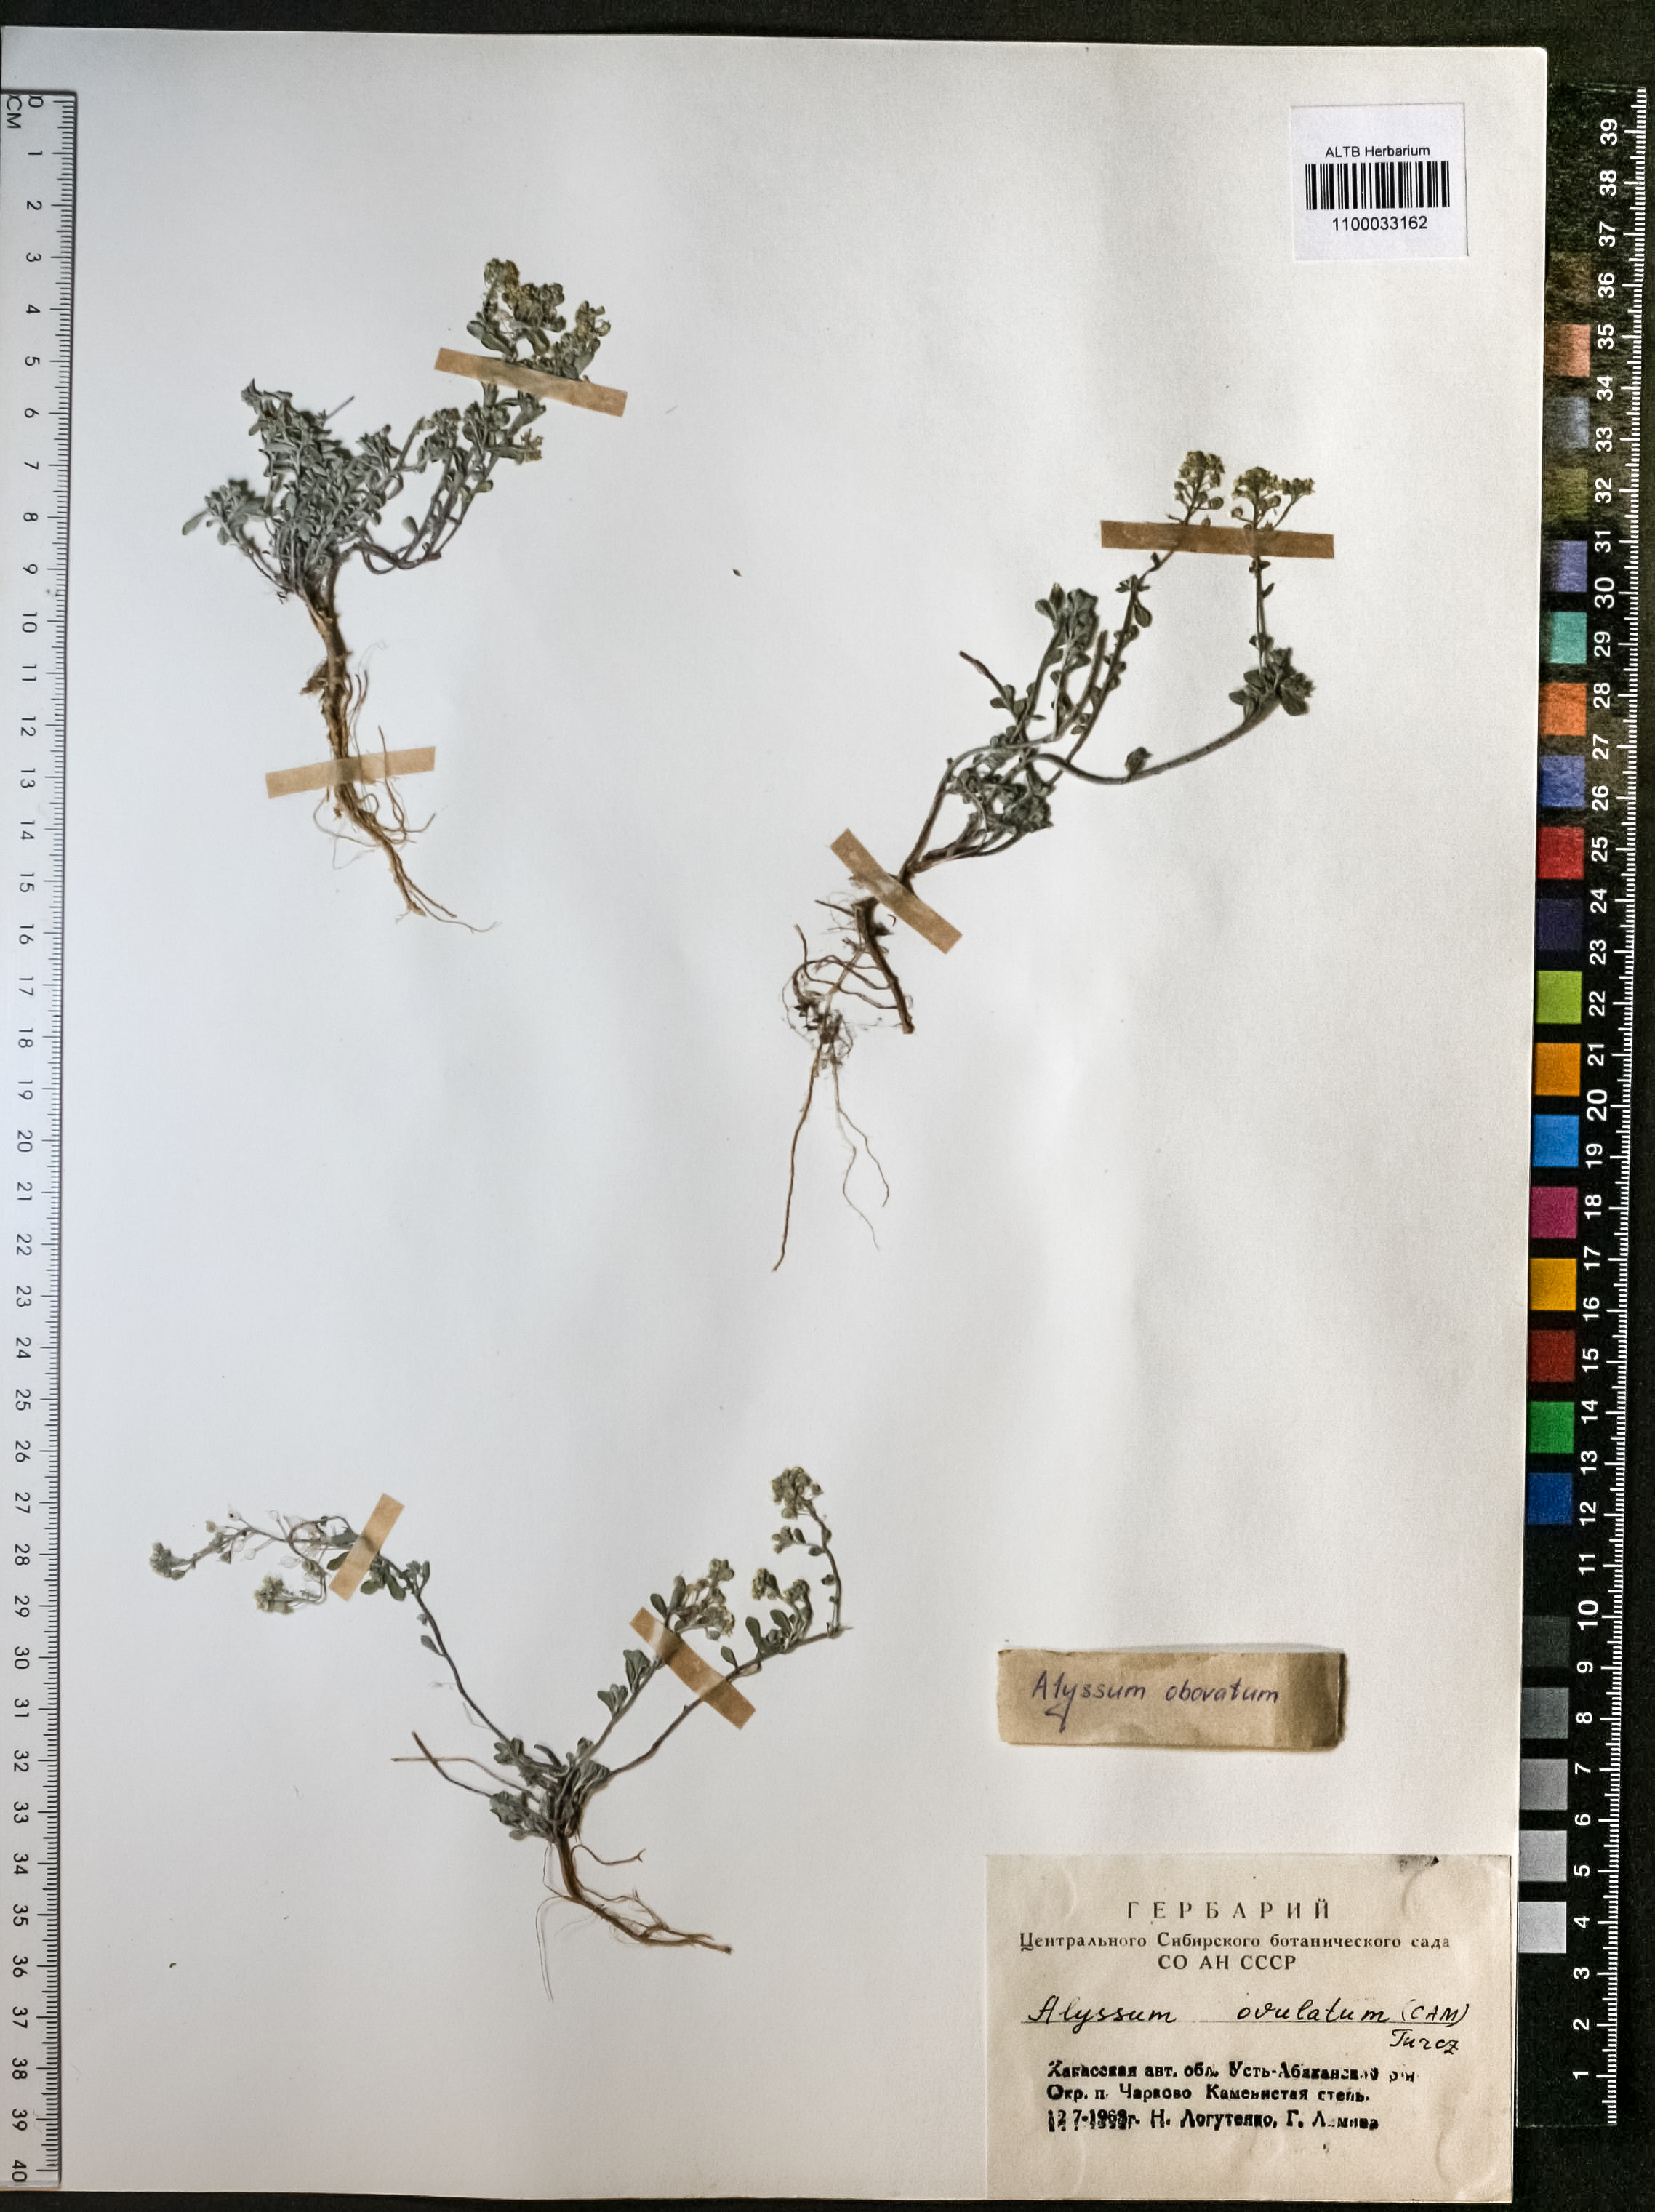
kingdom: Plantae
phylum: Tracheophyta
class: Magnoliopsida
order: Brassicales
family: Brassicaceae
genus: Odontarrhena
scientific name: Odontarrhena obovata
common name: American alyssum
